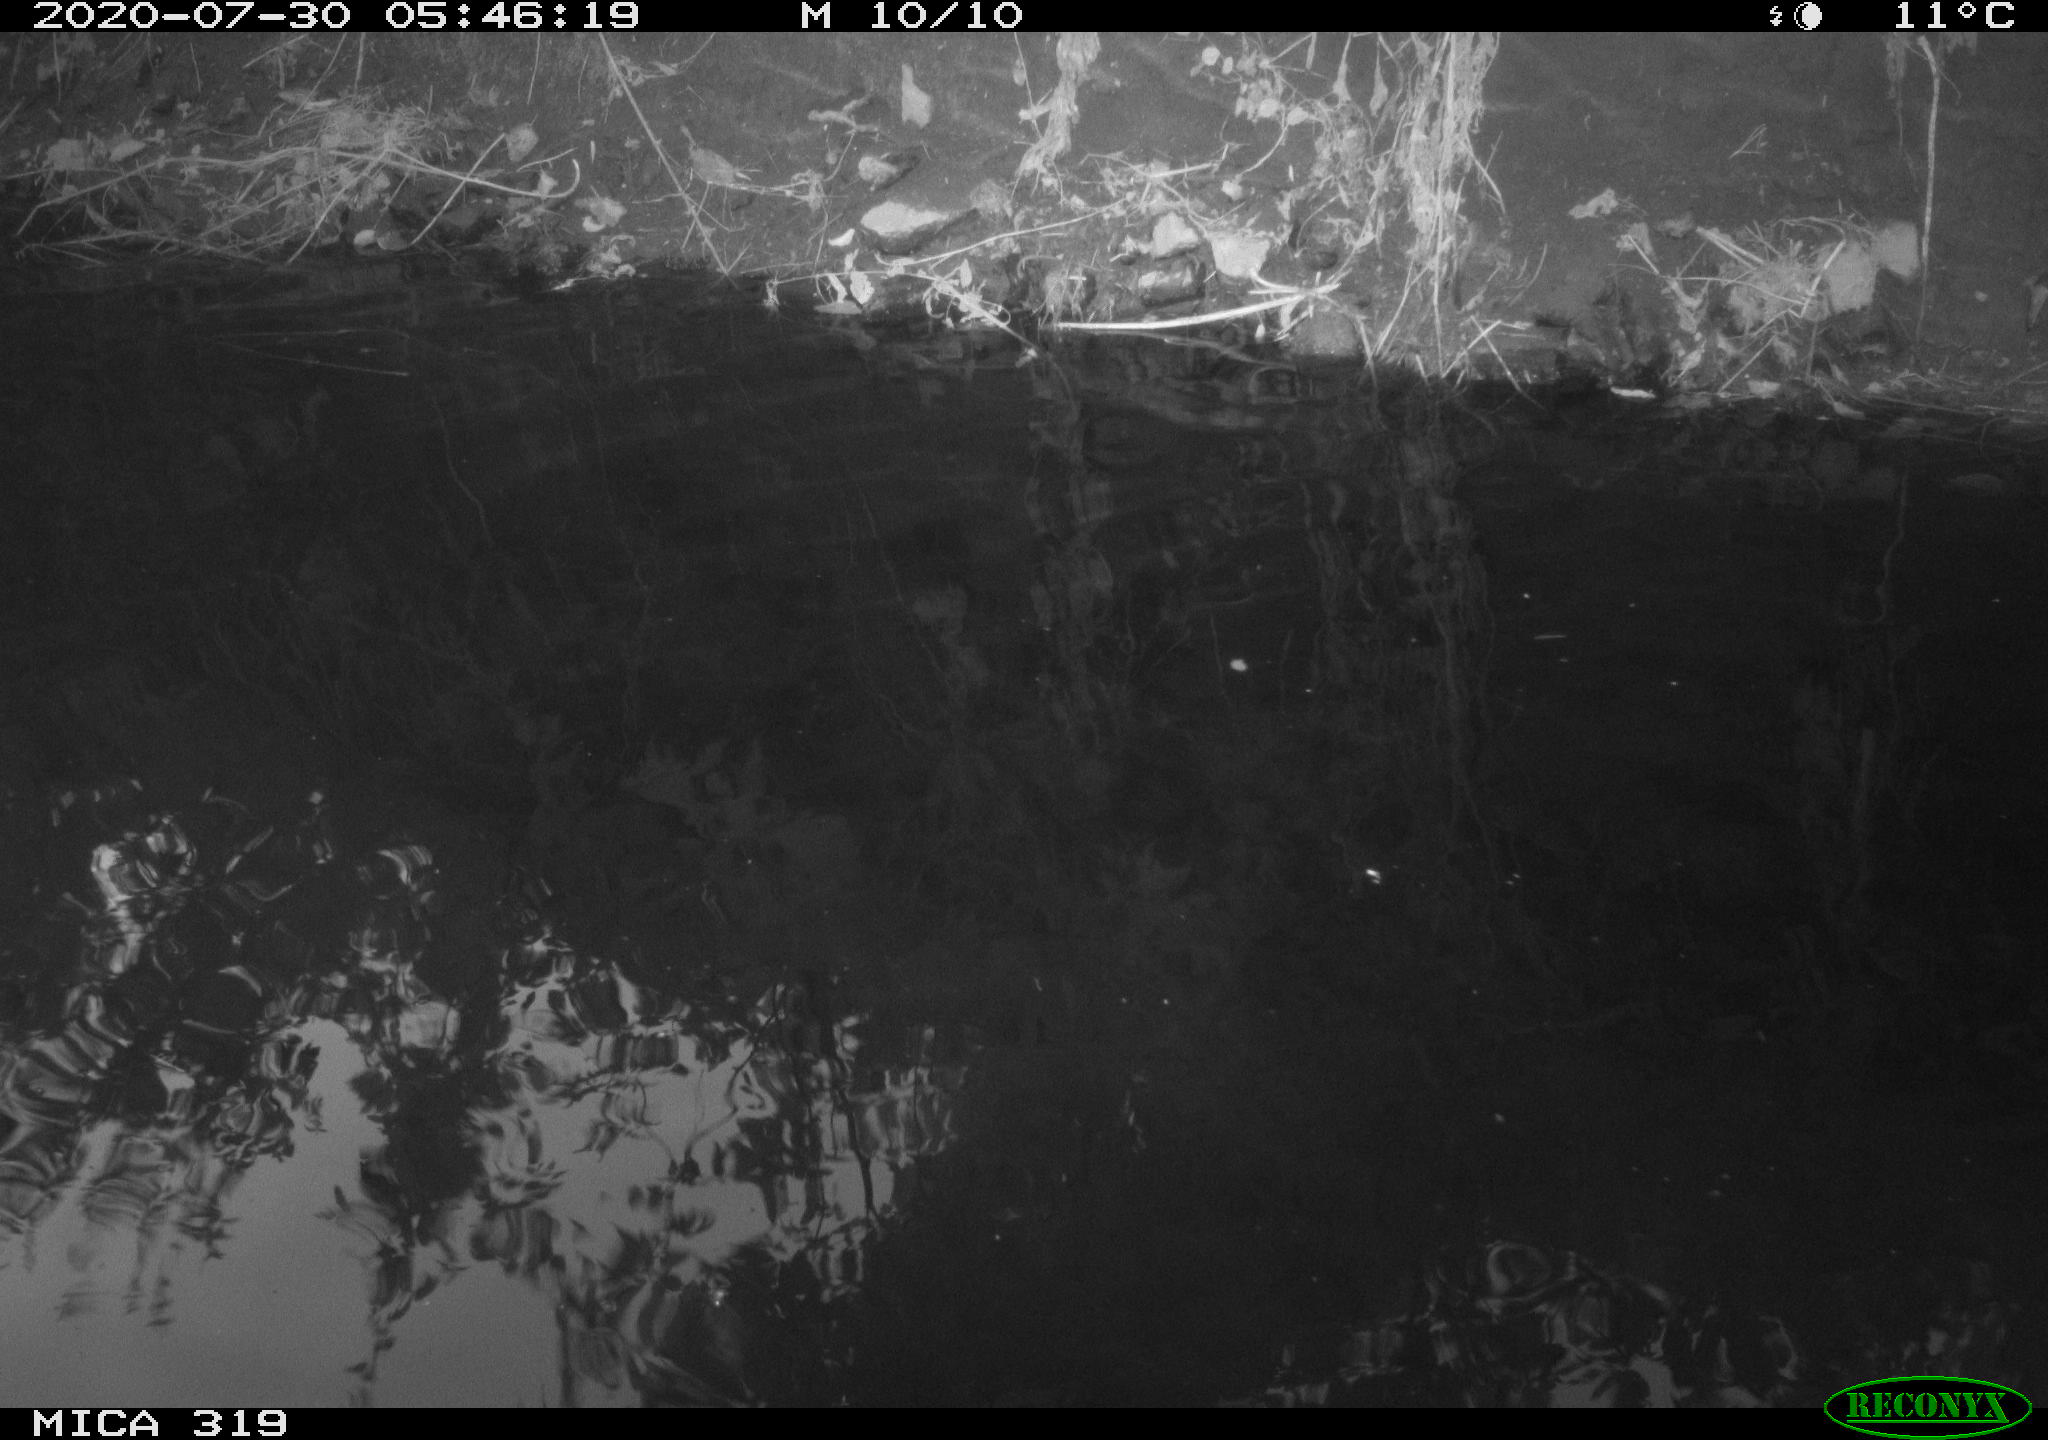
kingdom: Animalia
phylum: Chordata
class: Aves
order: Anseriformes
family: Anatidae
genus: Anas
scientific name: Anas platyrhynchos
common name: Mallard
